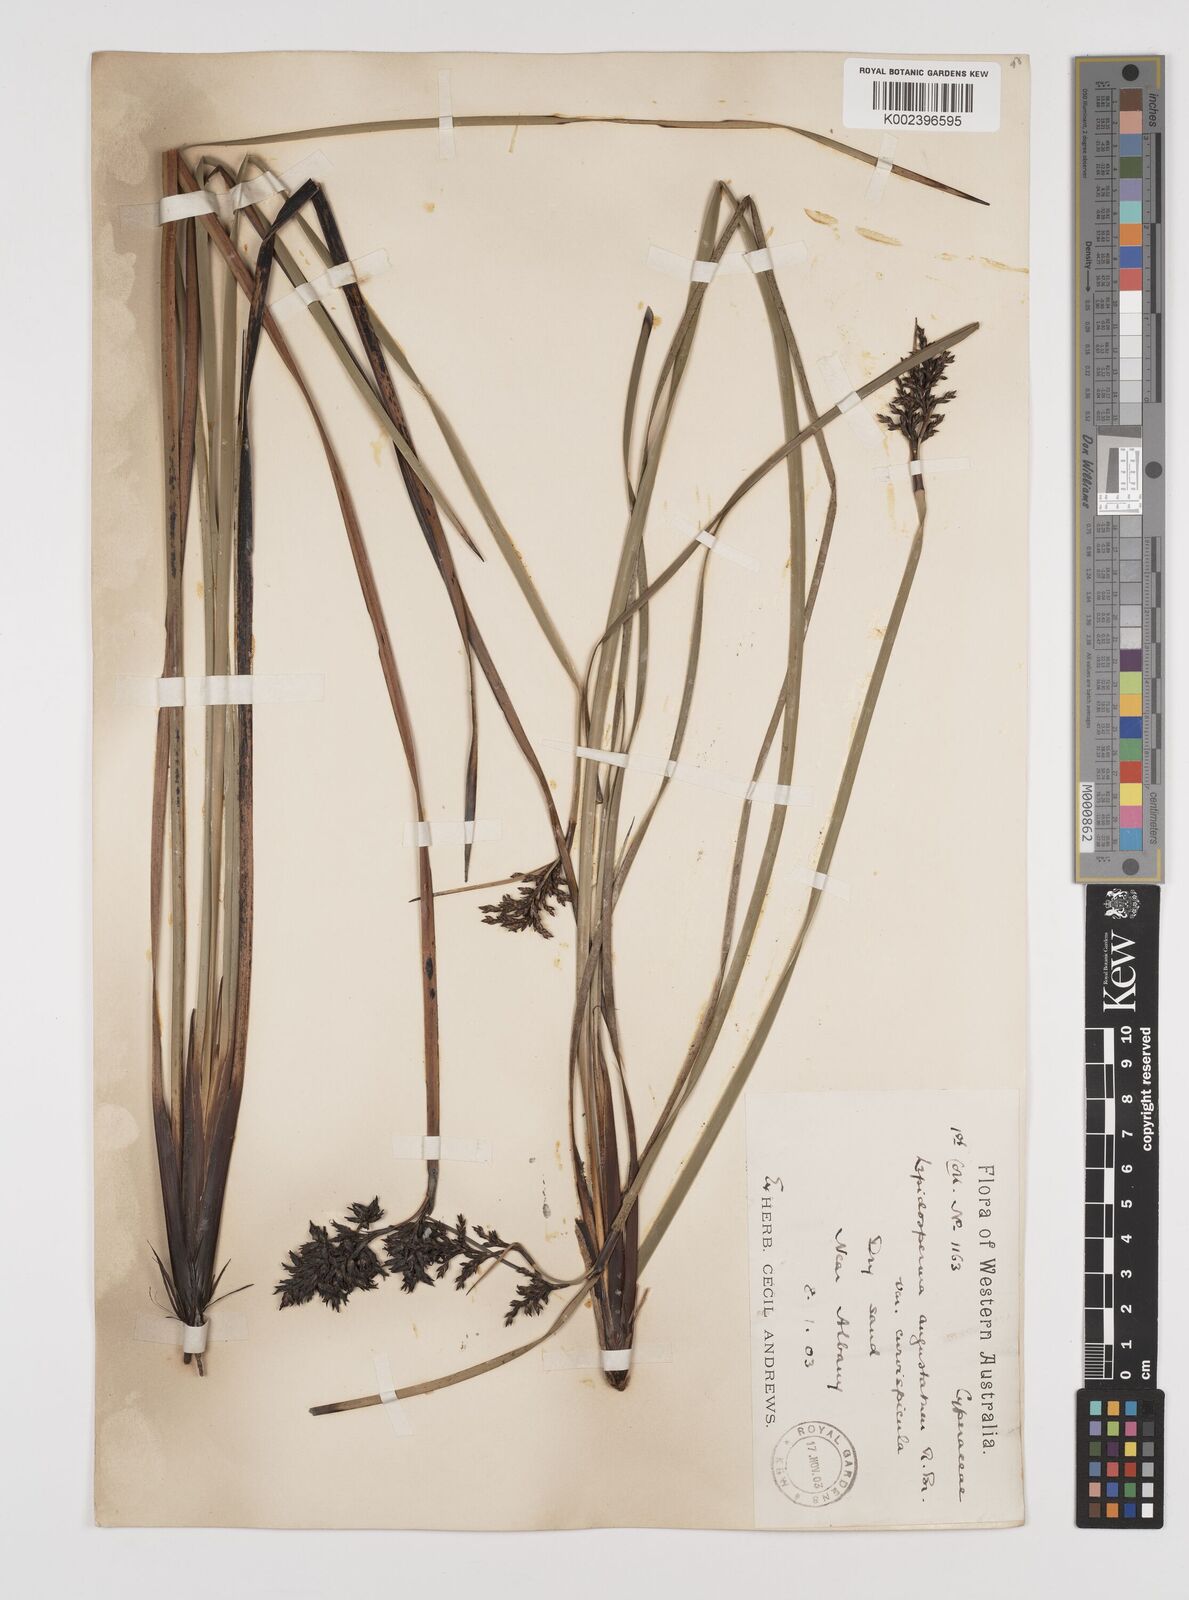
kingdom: Plantae
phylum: Tracheophyta
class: Liliopsida
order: Poales
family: Cyperaceae
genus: Lepidosperma
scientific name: Lepidosperma angustatum
